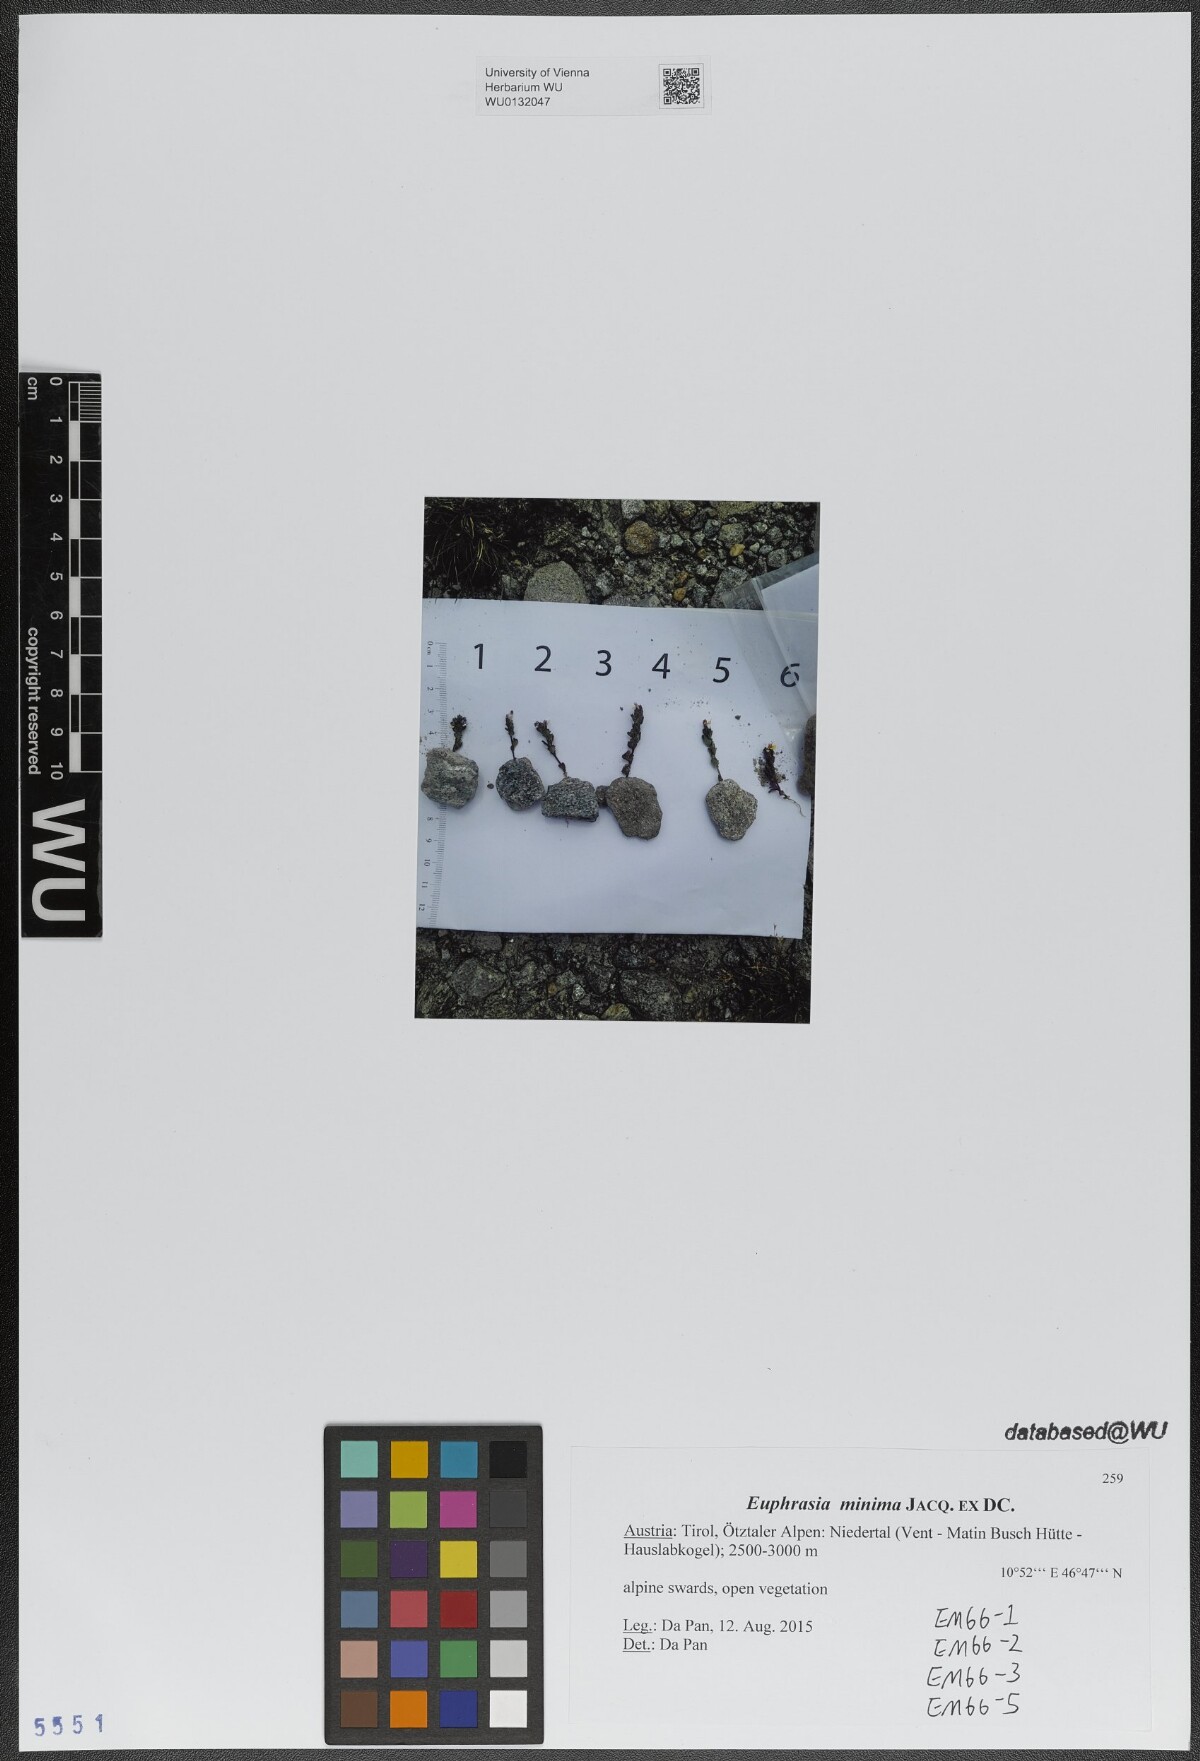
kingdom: Plantae
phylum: Tracheophyta
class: Magnoliopsida
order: Lamiales
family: Orobanchaceae
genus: Euphrasia
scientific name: Euphrasia minima
